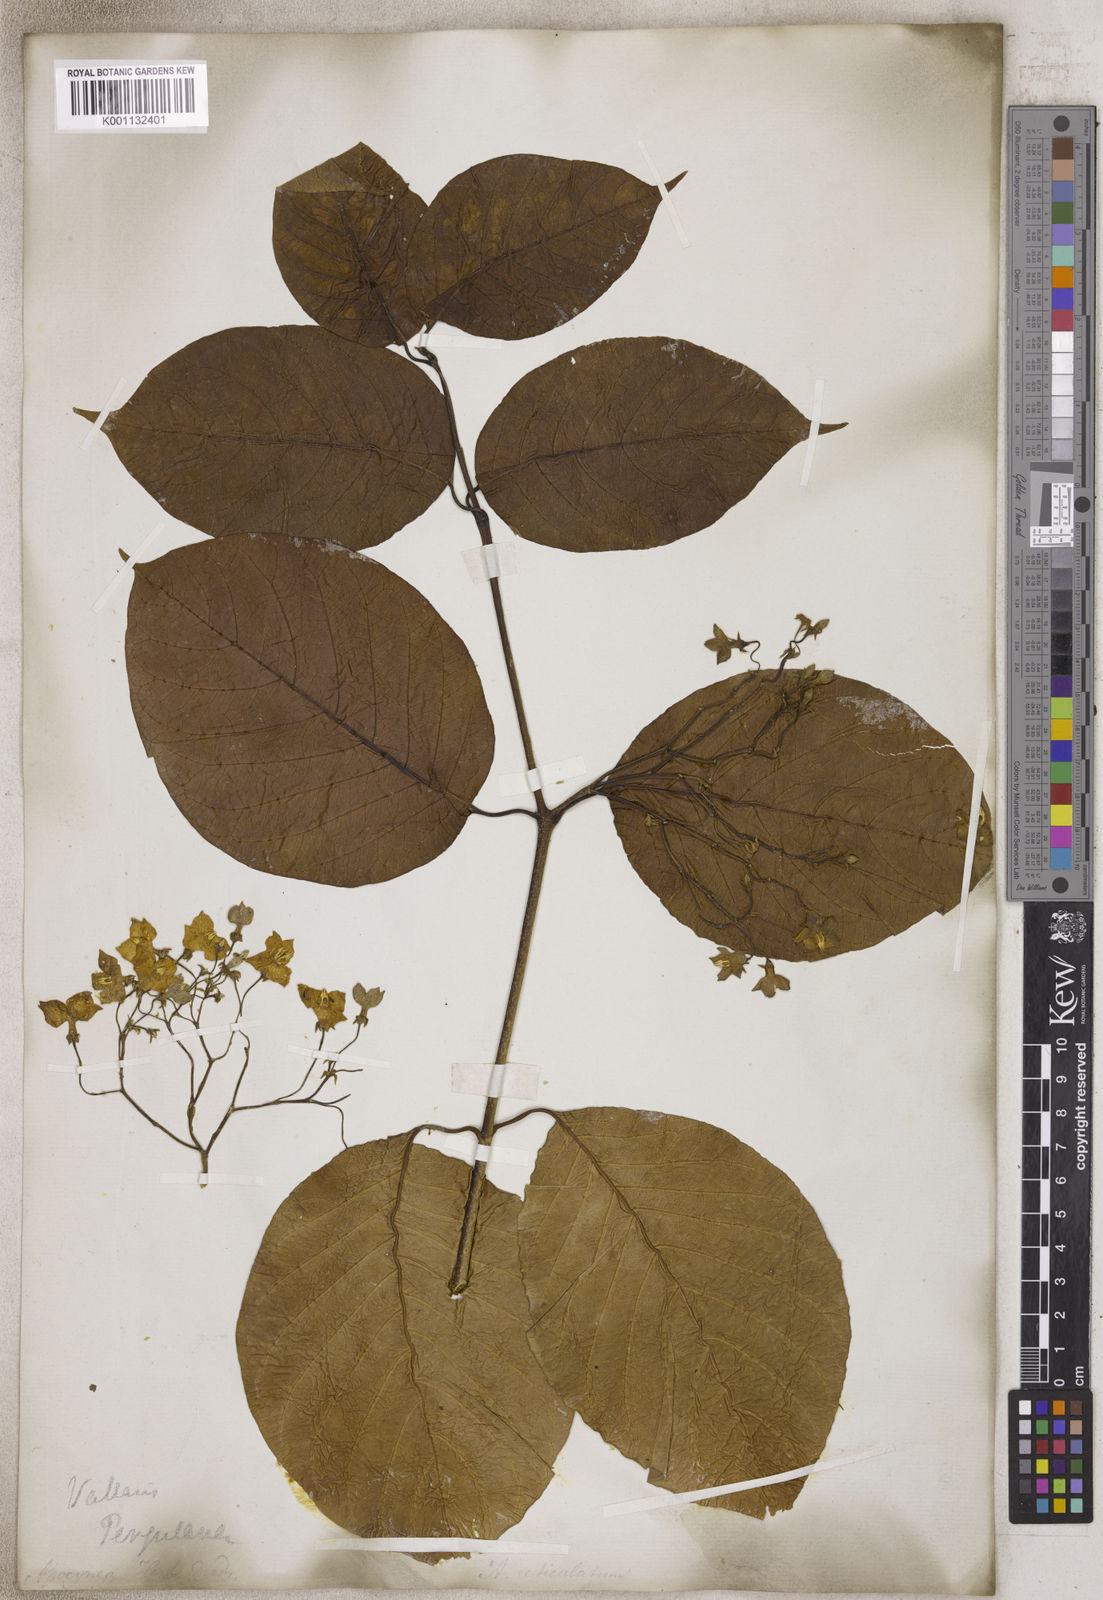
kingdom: Plantae
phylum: Tracheophyta
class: Magnoliopsida
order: Gentianales
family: Apocynaceae
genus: Vallaris
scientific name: Vallaris
